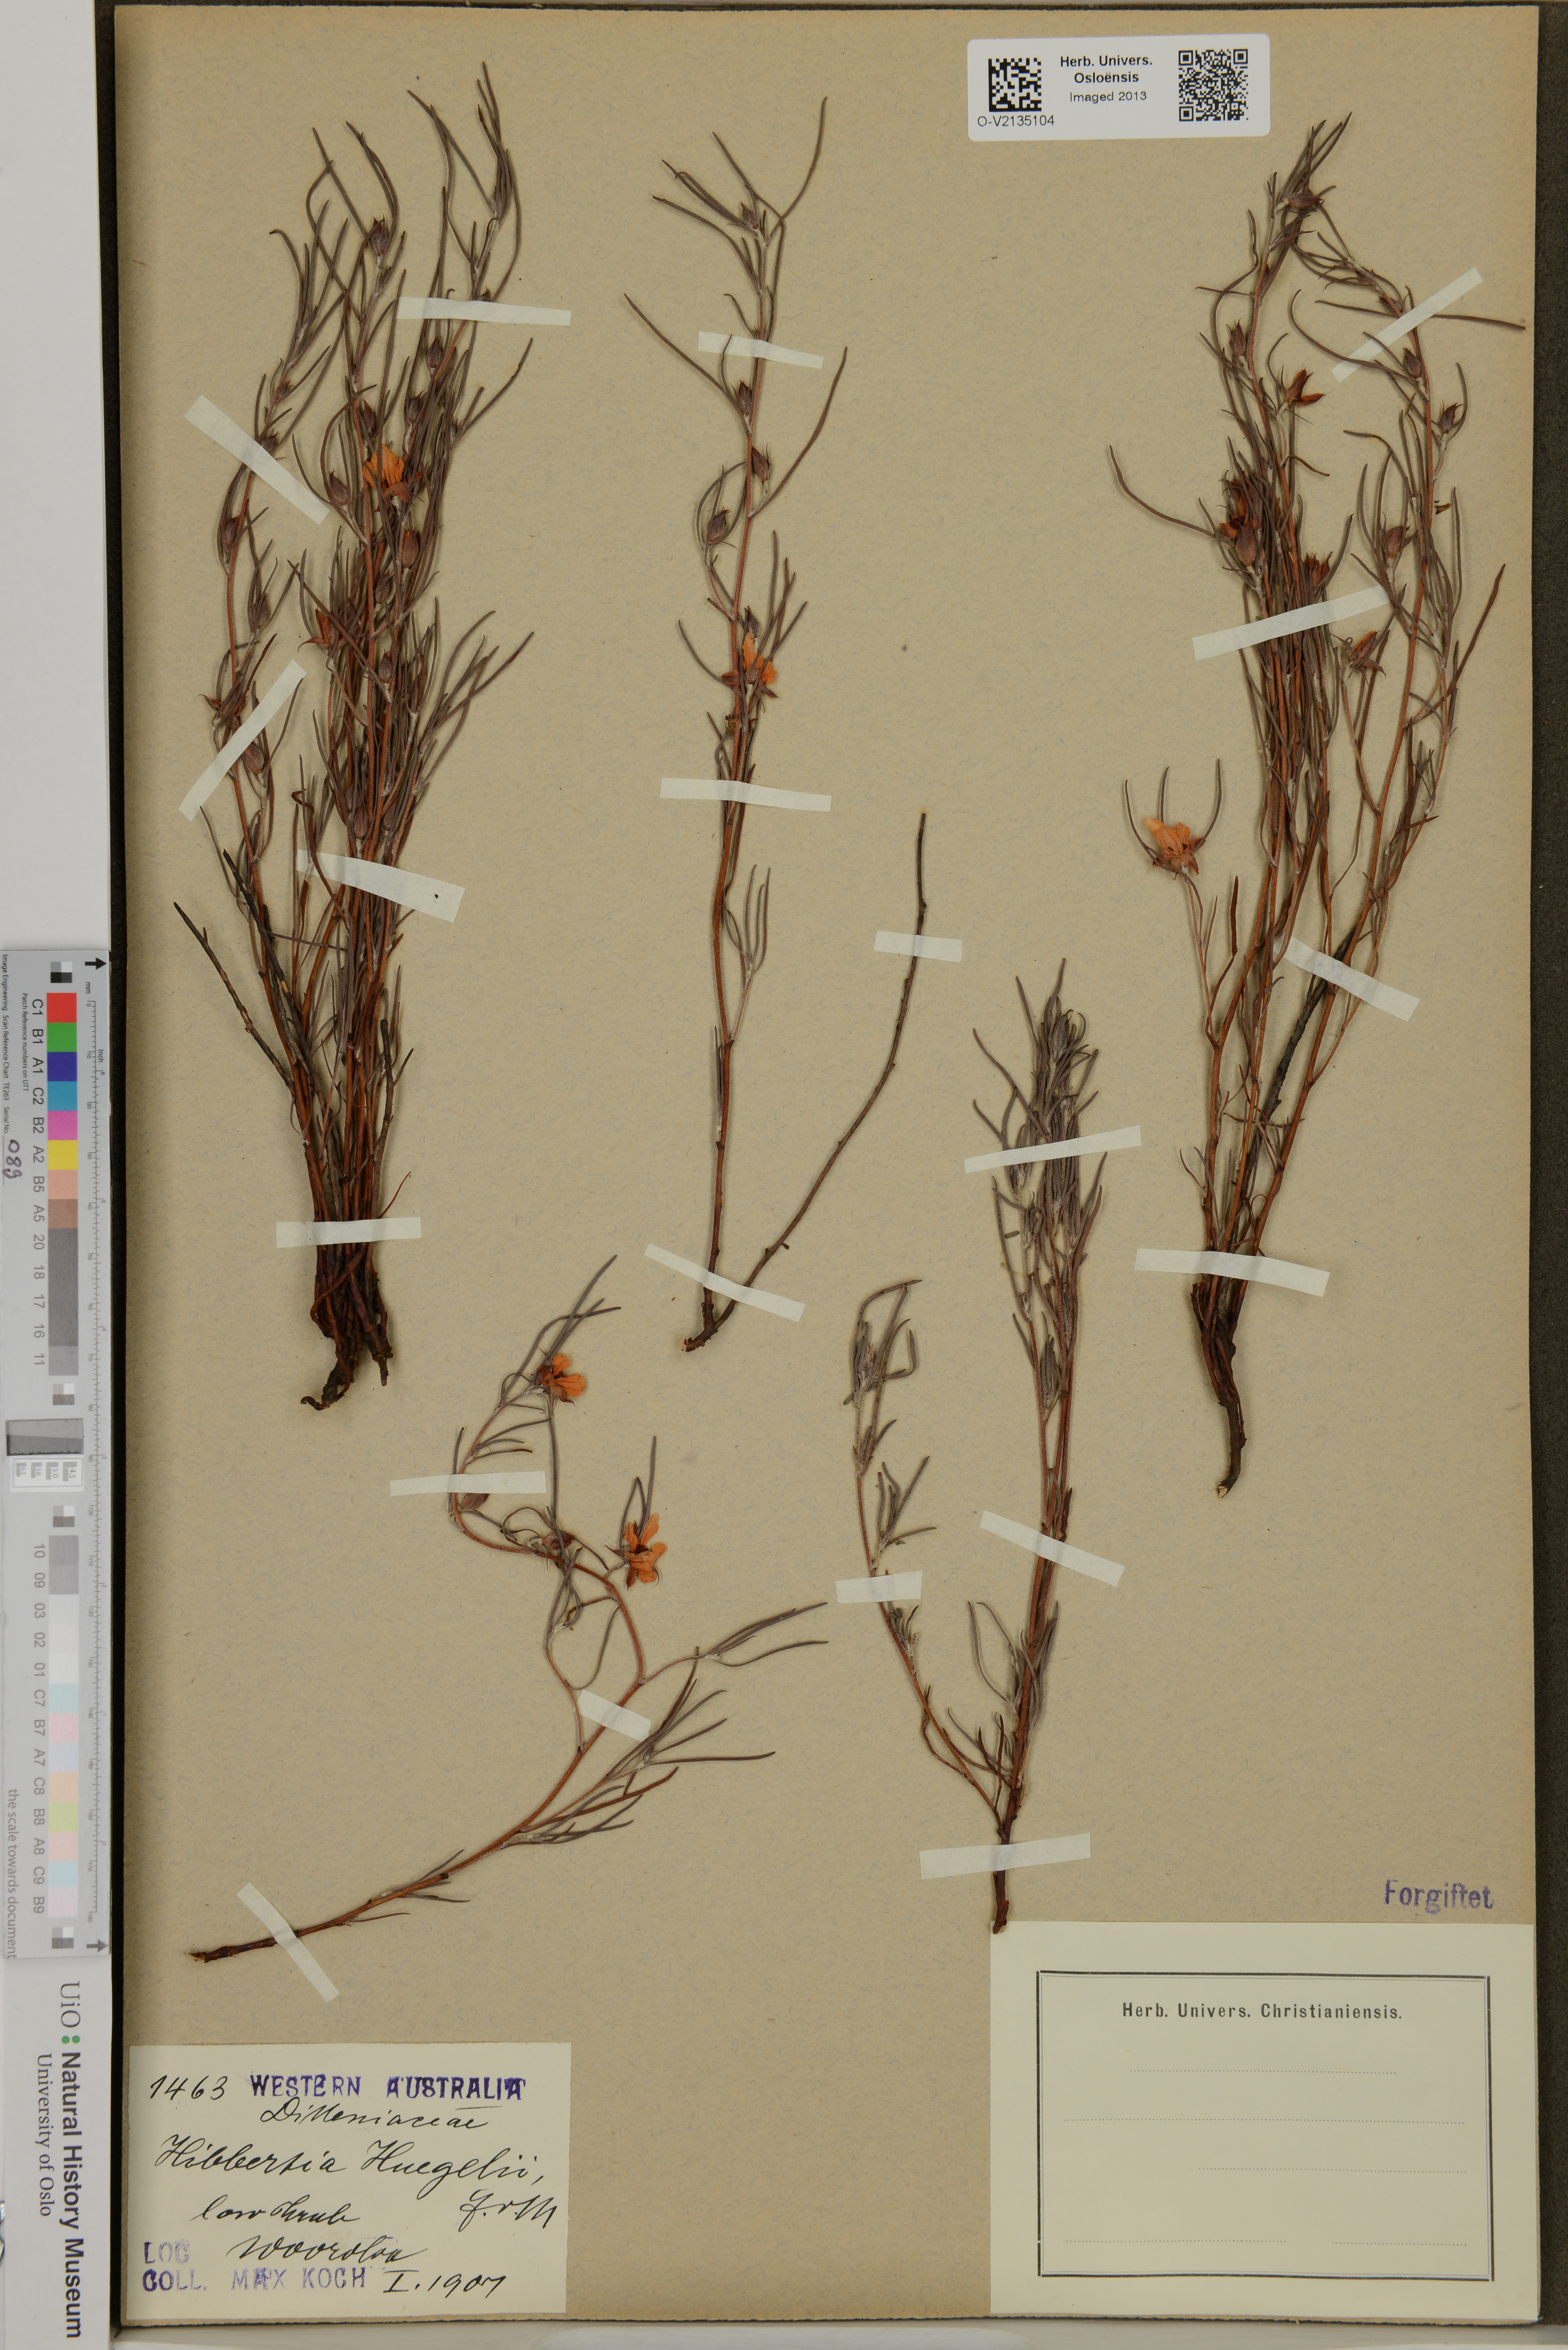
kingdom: Plantae
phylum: Tracheophyta
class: Magnoliopsida
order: Dilleniales
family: Dilleniaceae
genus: Hibbertia
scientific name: Hibbertia huegelii
